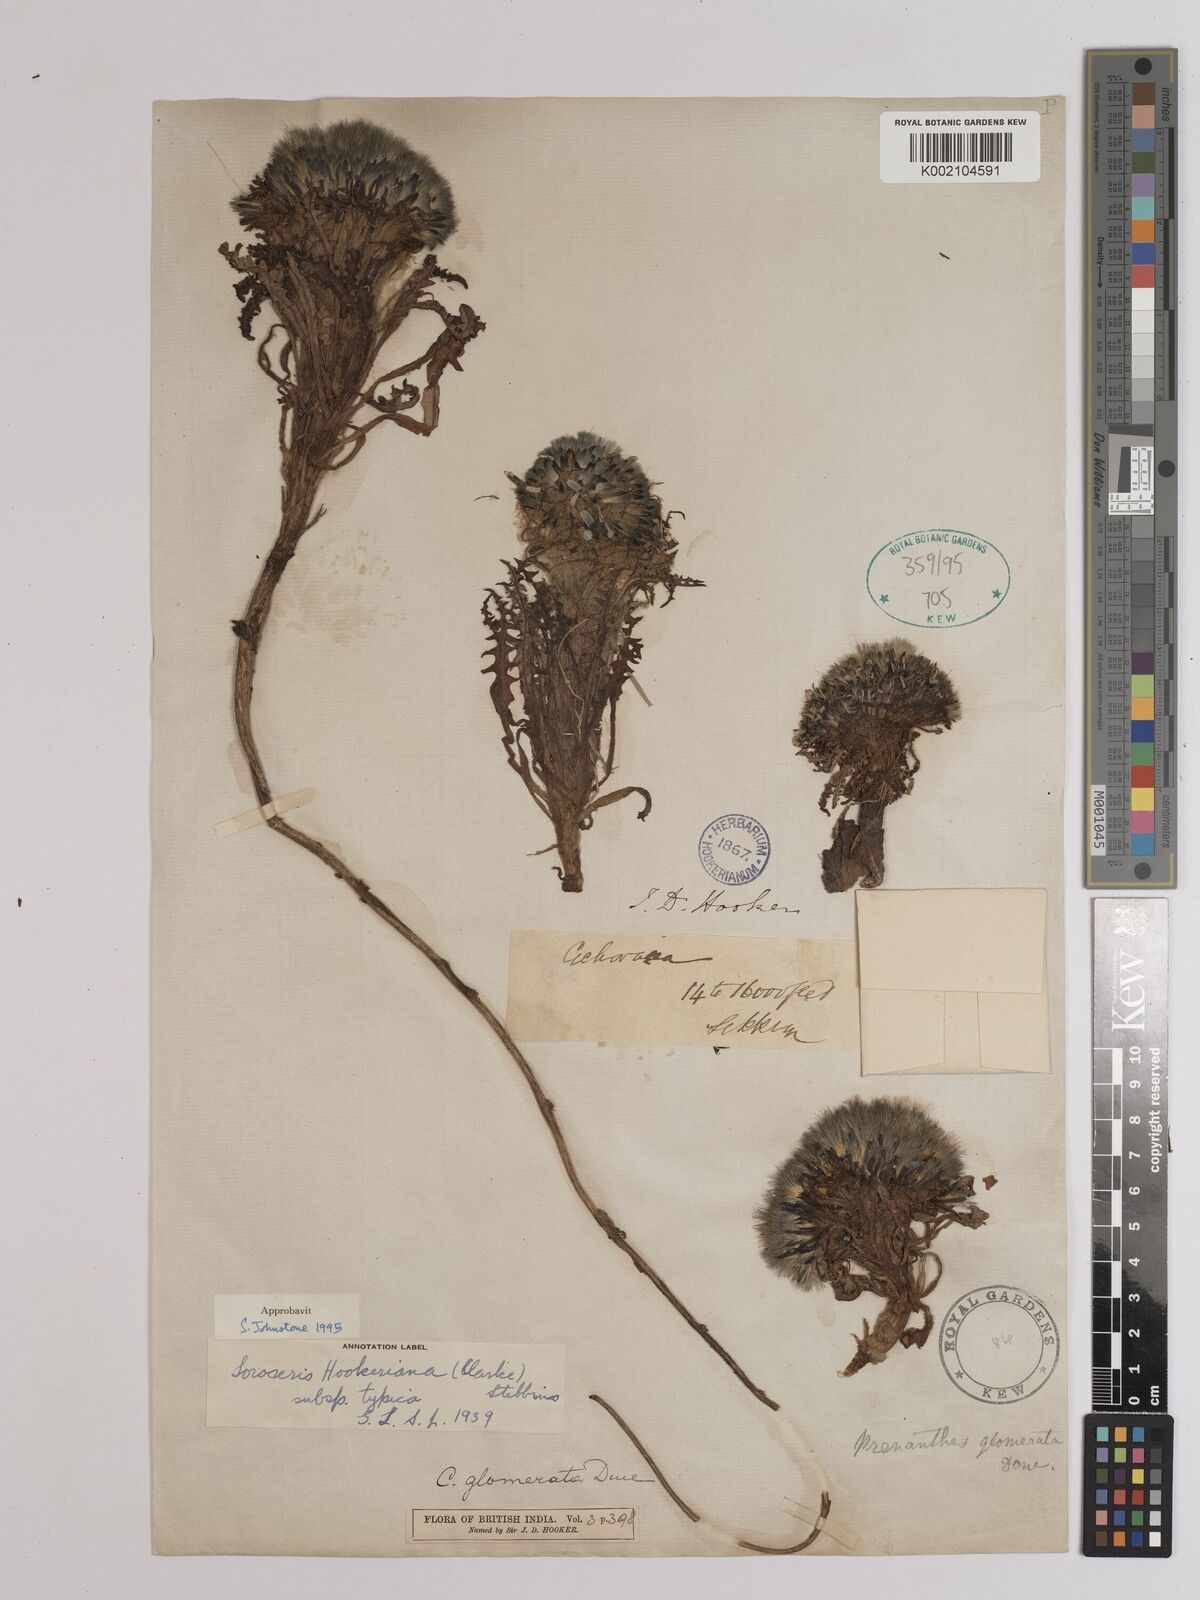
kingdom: Plantae
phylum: Tracheophyta
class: Magnoliopsida
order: Asterales
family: Asteraceae
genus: Soroseris
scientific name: Soroseris hookeriana
